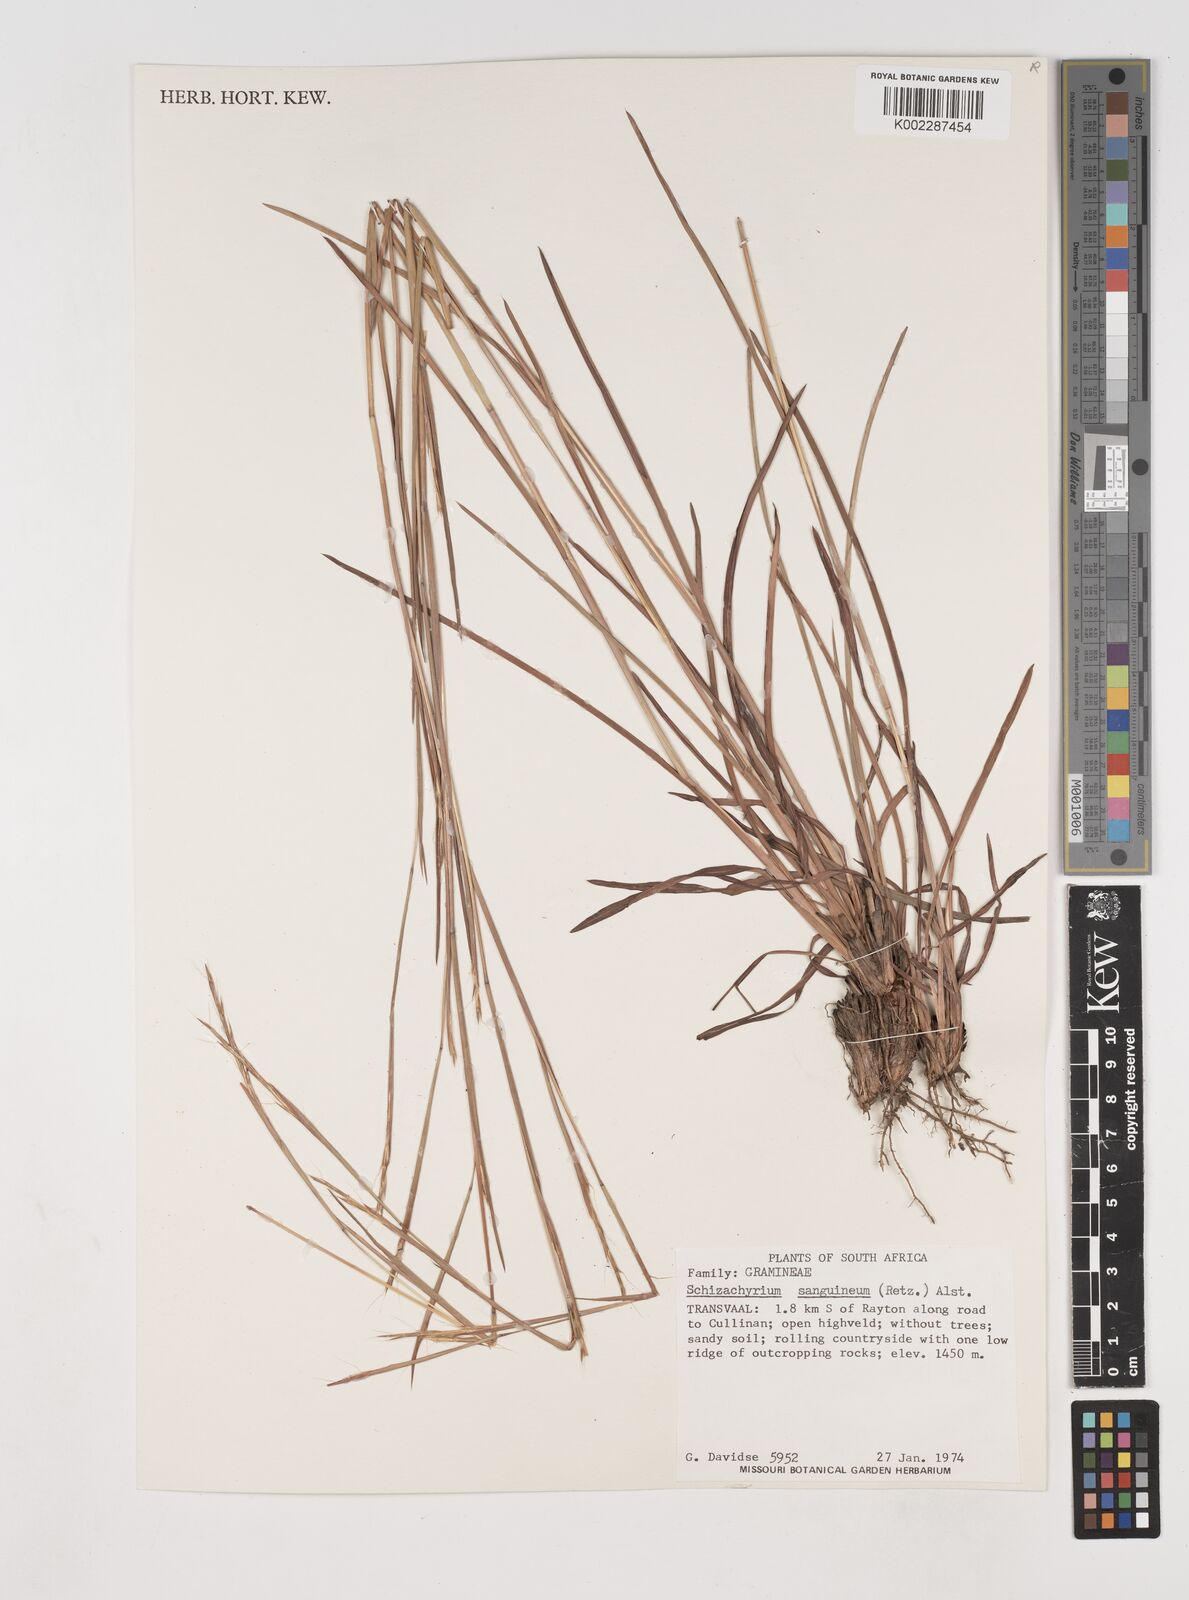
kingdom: Plantae
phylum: Tracheophyta
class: Liliopsida
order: Poales
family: Poaceae
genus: Schizachyrium
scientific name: Schizachyrium sanguineum
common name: Crimson bluestem
